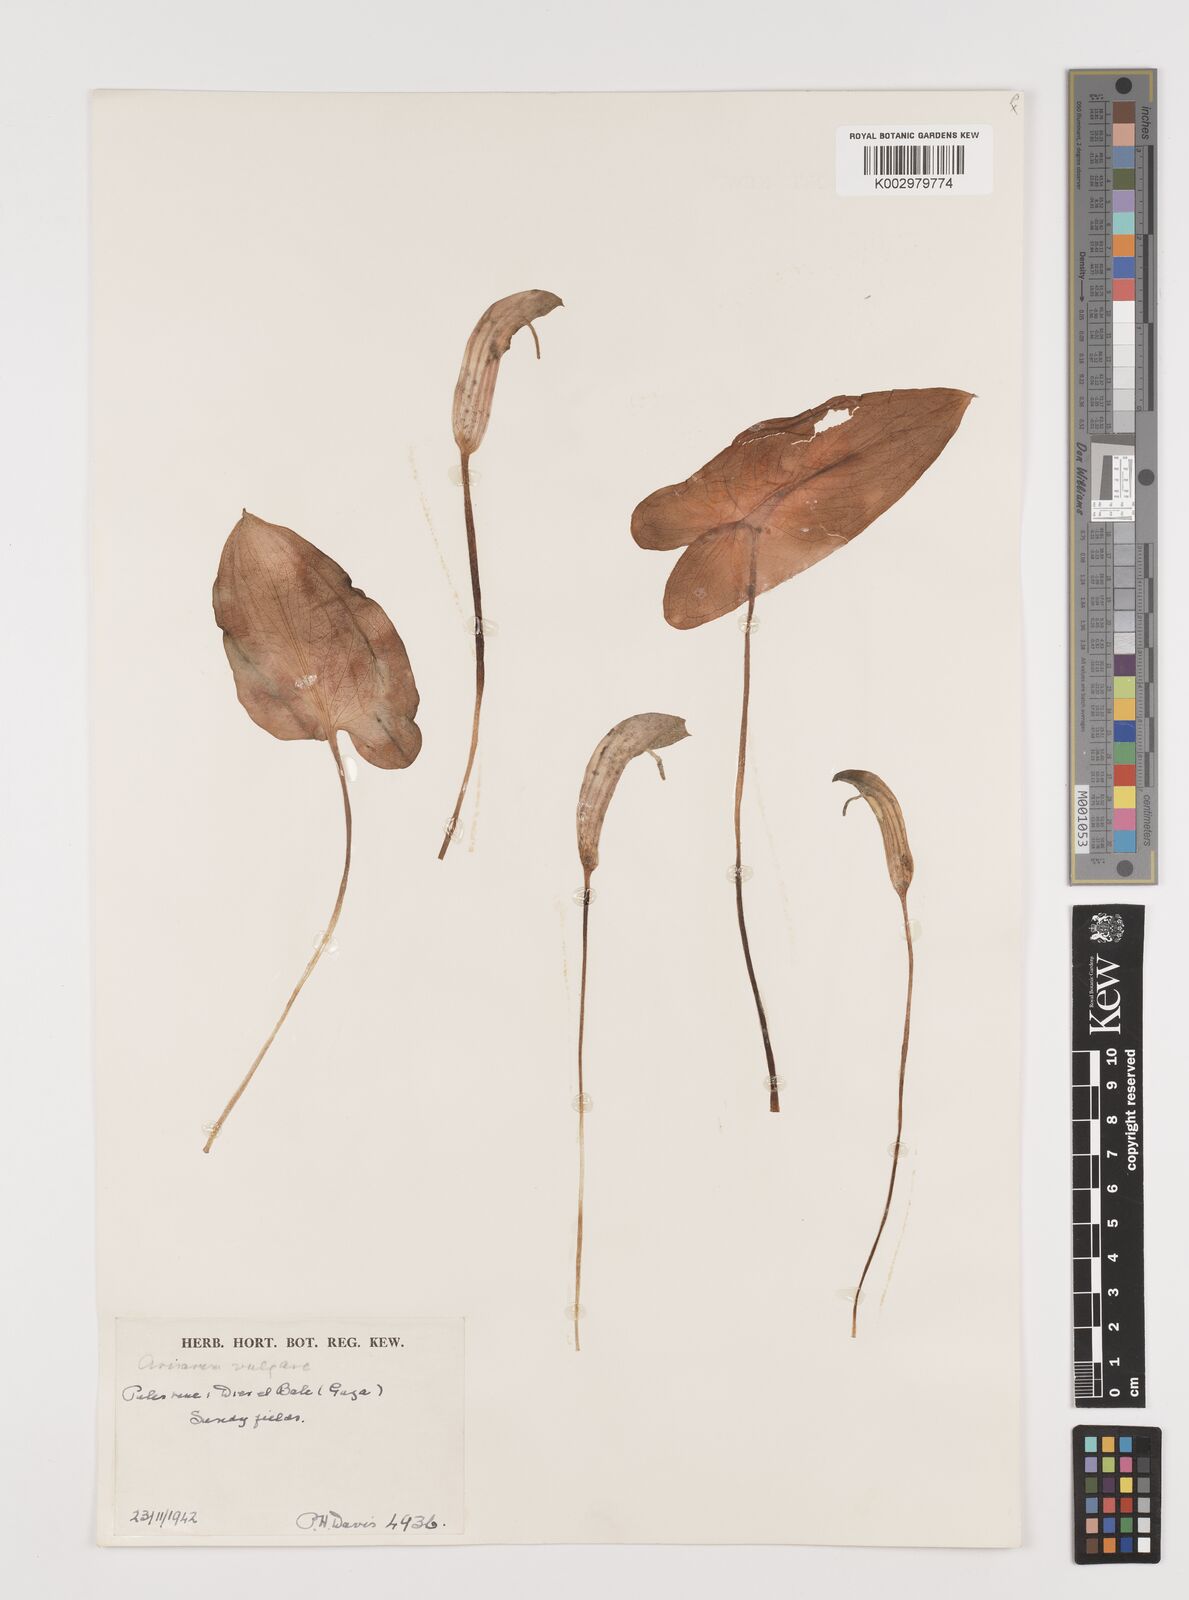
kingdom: Plantae
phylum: Tracheophyta
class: Liliopsida
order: Alismatales
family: Araceae
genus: Arisarum
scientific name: Arisarum vulgare
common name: Common arisarum
